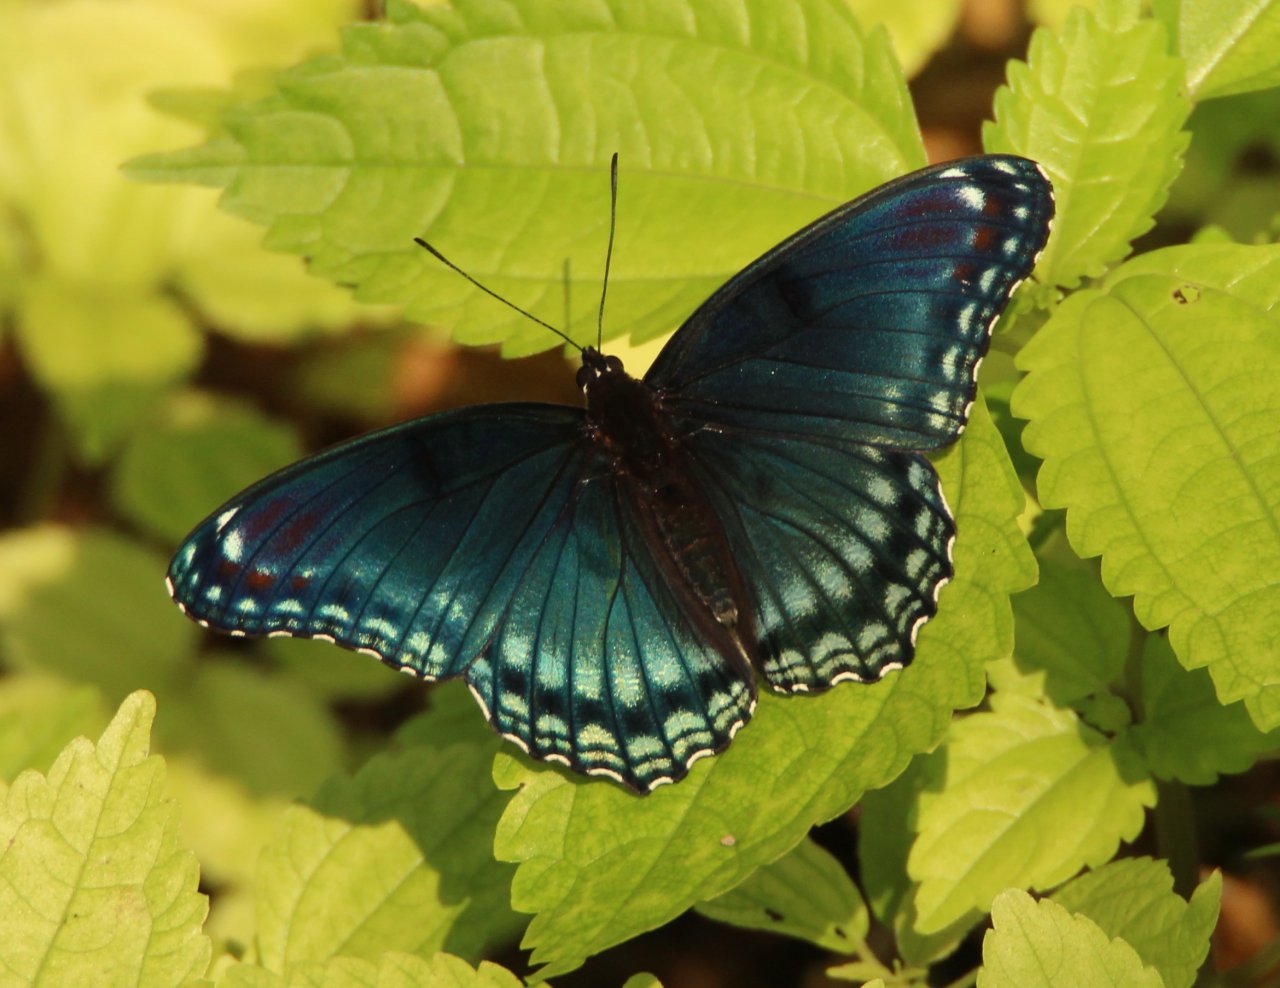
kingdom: Animalia
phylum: Arthropoda
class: Insecta
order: Lepidoptera
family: Nymphalidae
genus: Limenitis
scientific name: Limenitis astyanax
